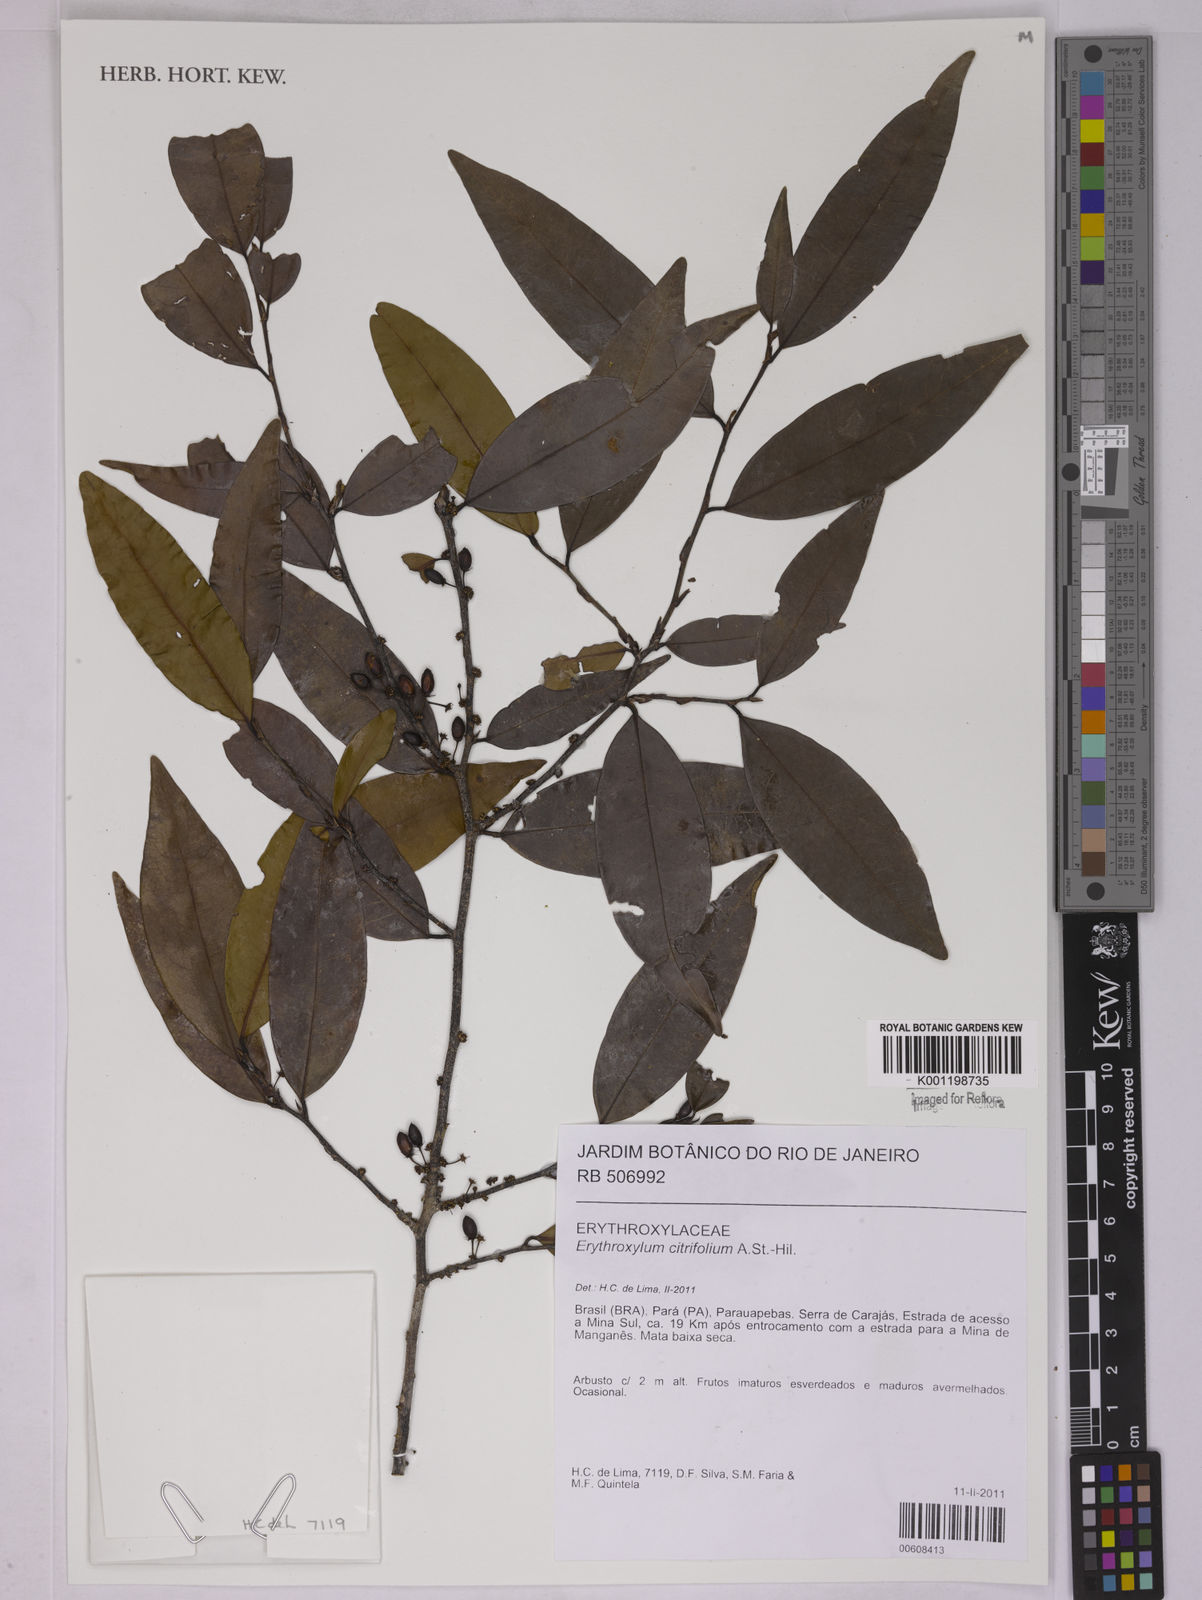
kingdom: Plantae
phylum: Tracheophyta
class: Magnoliopsida
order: Malpighiales
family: Erythroxylaceae
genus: Erythroxylum
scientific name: Erythroxylum citrifolium
